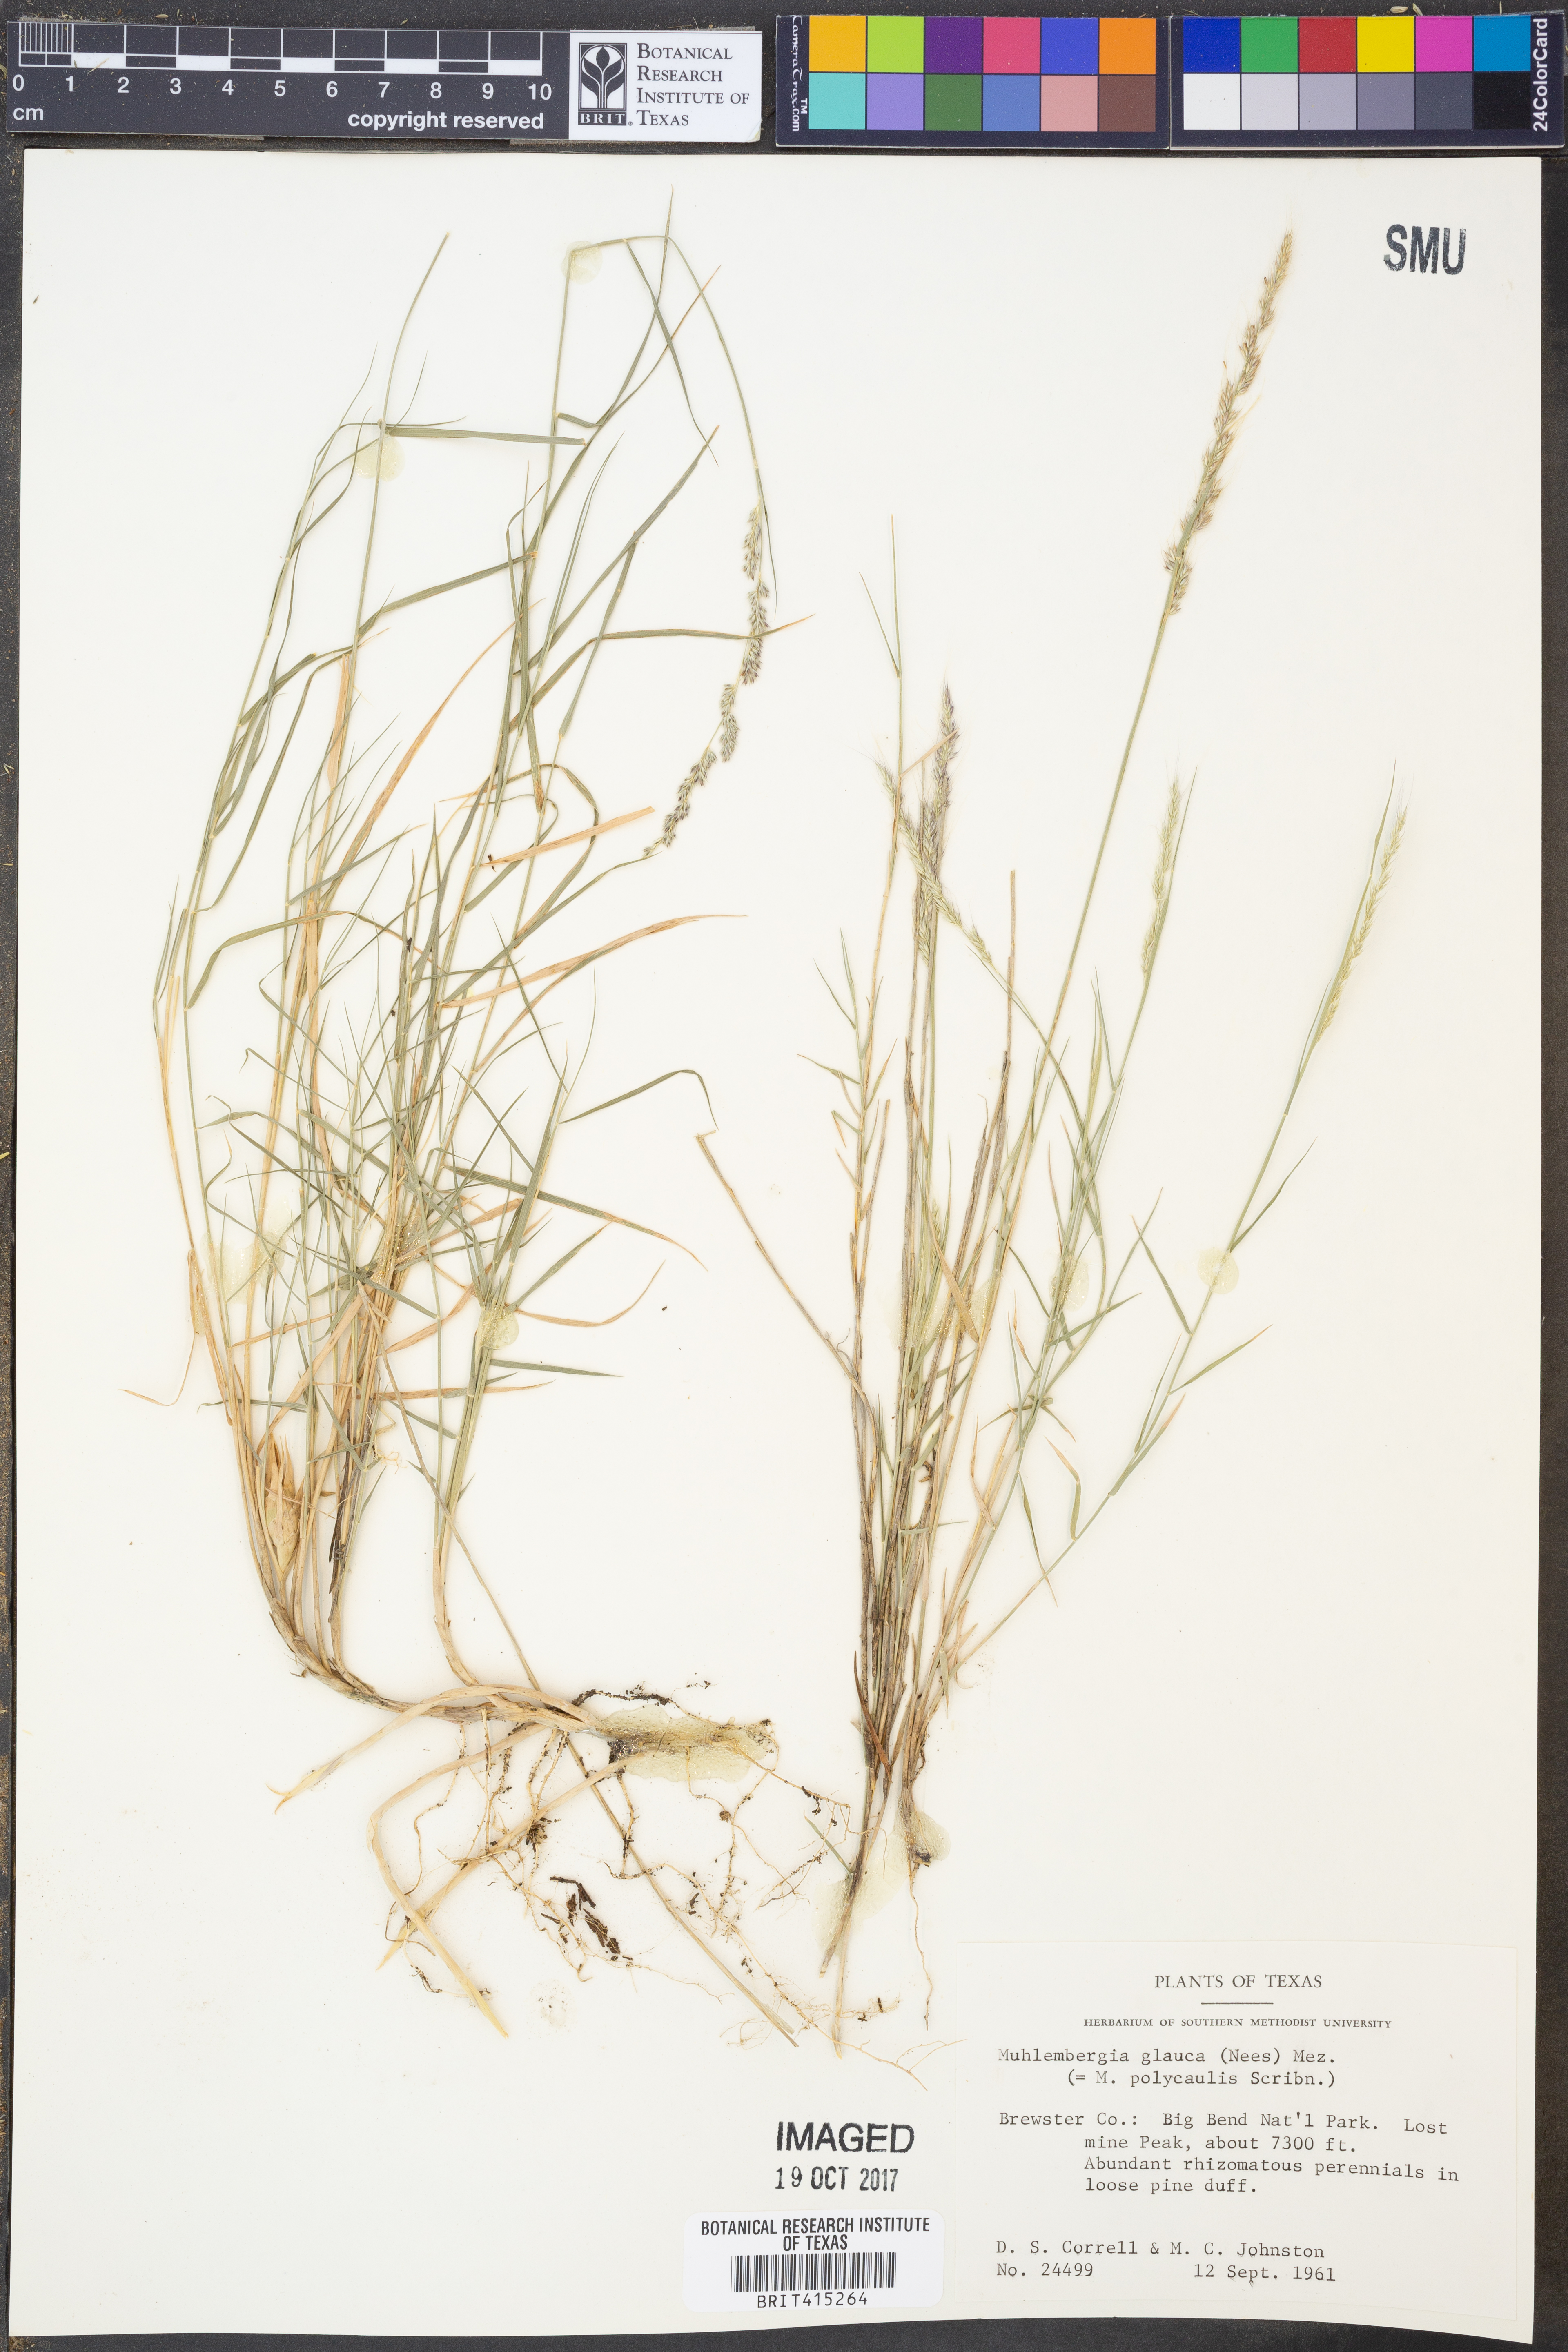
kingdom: Plantae
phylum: Tracheophyta
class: Liliopsida
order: Poales
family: Poaceae
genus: Muhlenbergia
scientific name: Muhlenbergia glauca
